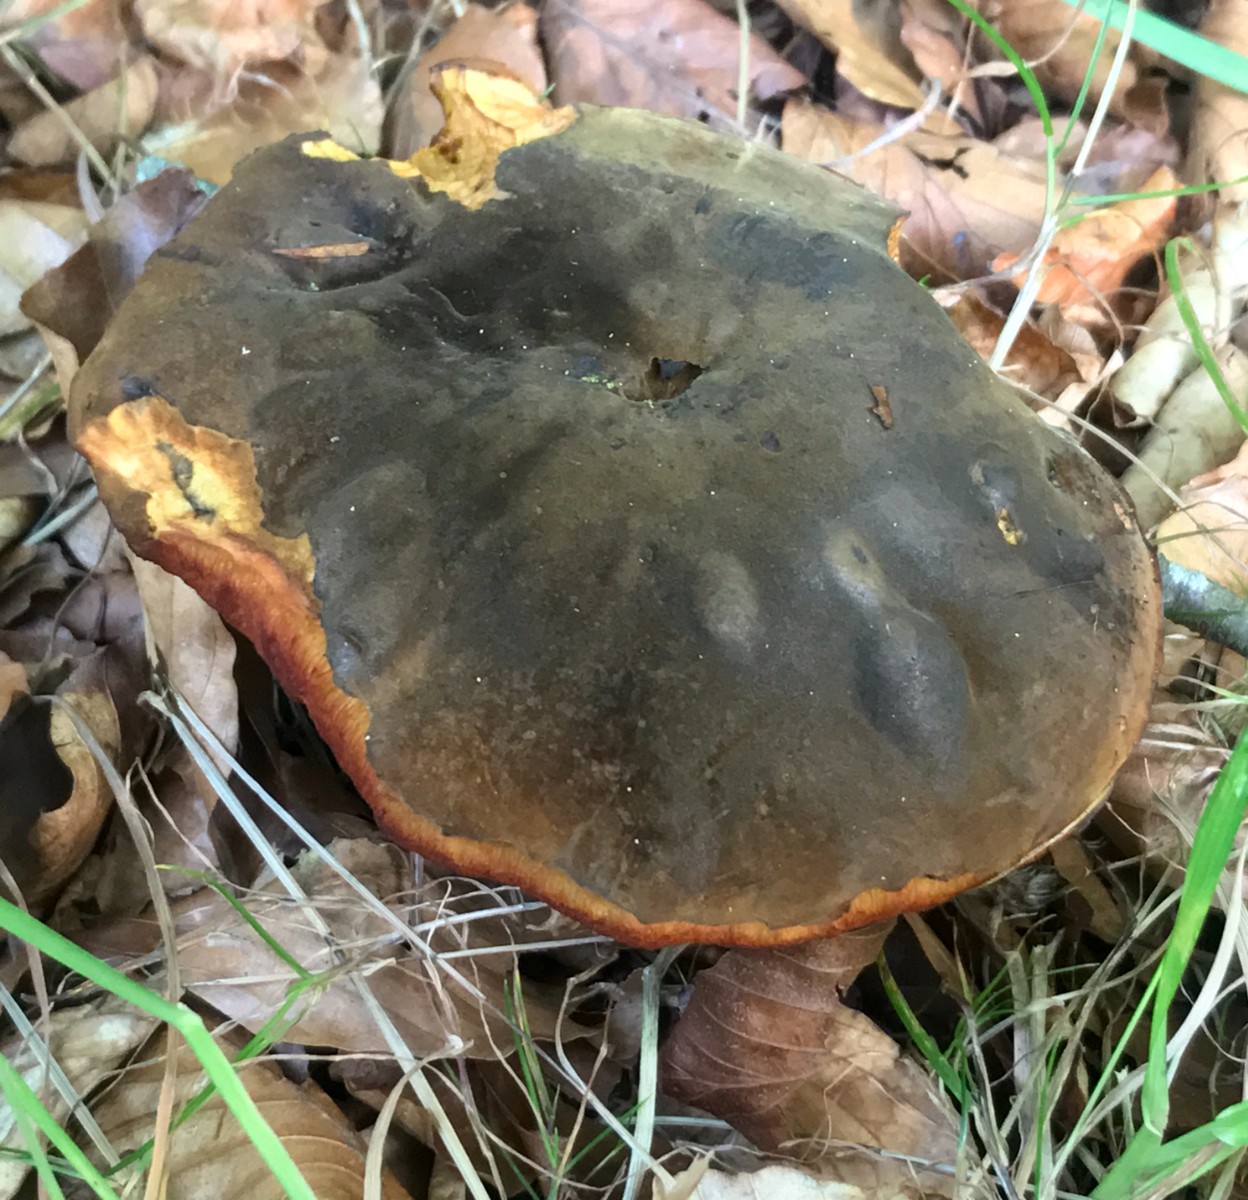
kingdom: Fungi
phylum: Basidiomycota
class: Agaricomycetes
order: Boletales
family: Boletaceae
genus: Neoboletus
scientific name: Neoboletus erythropus
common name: punktstokket indigorørhat
